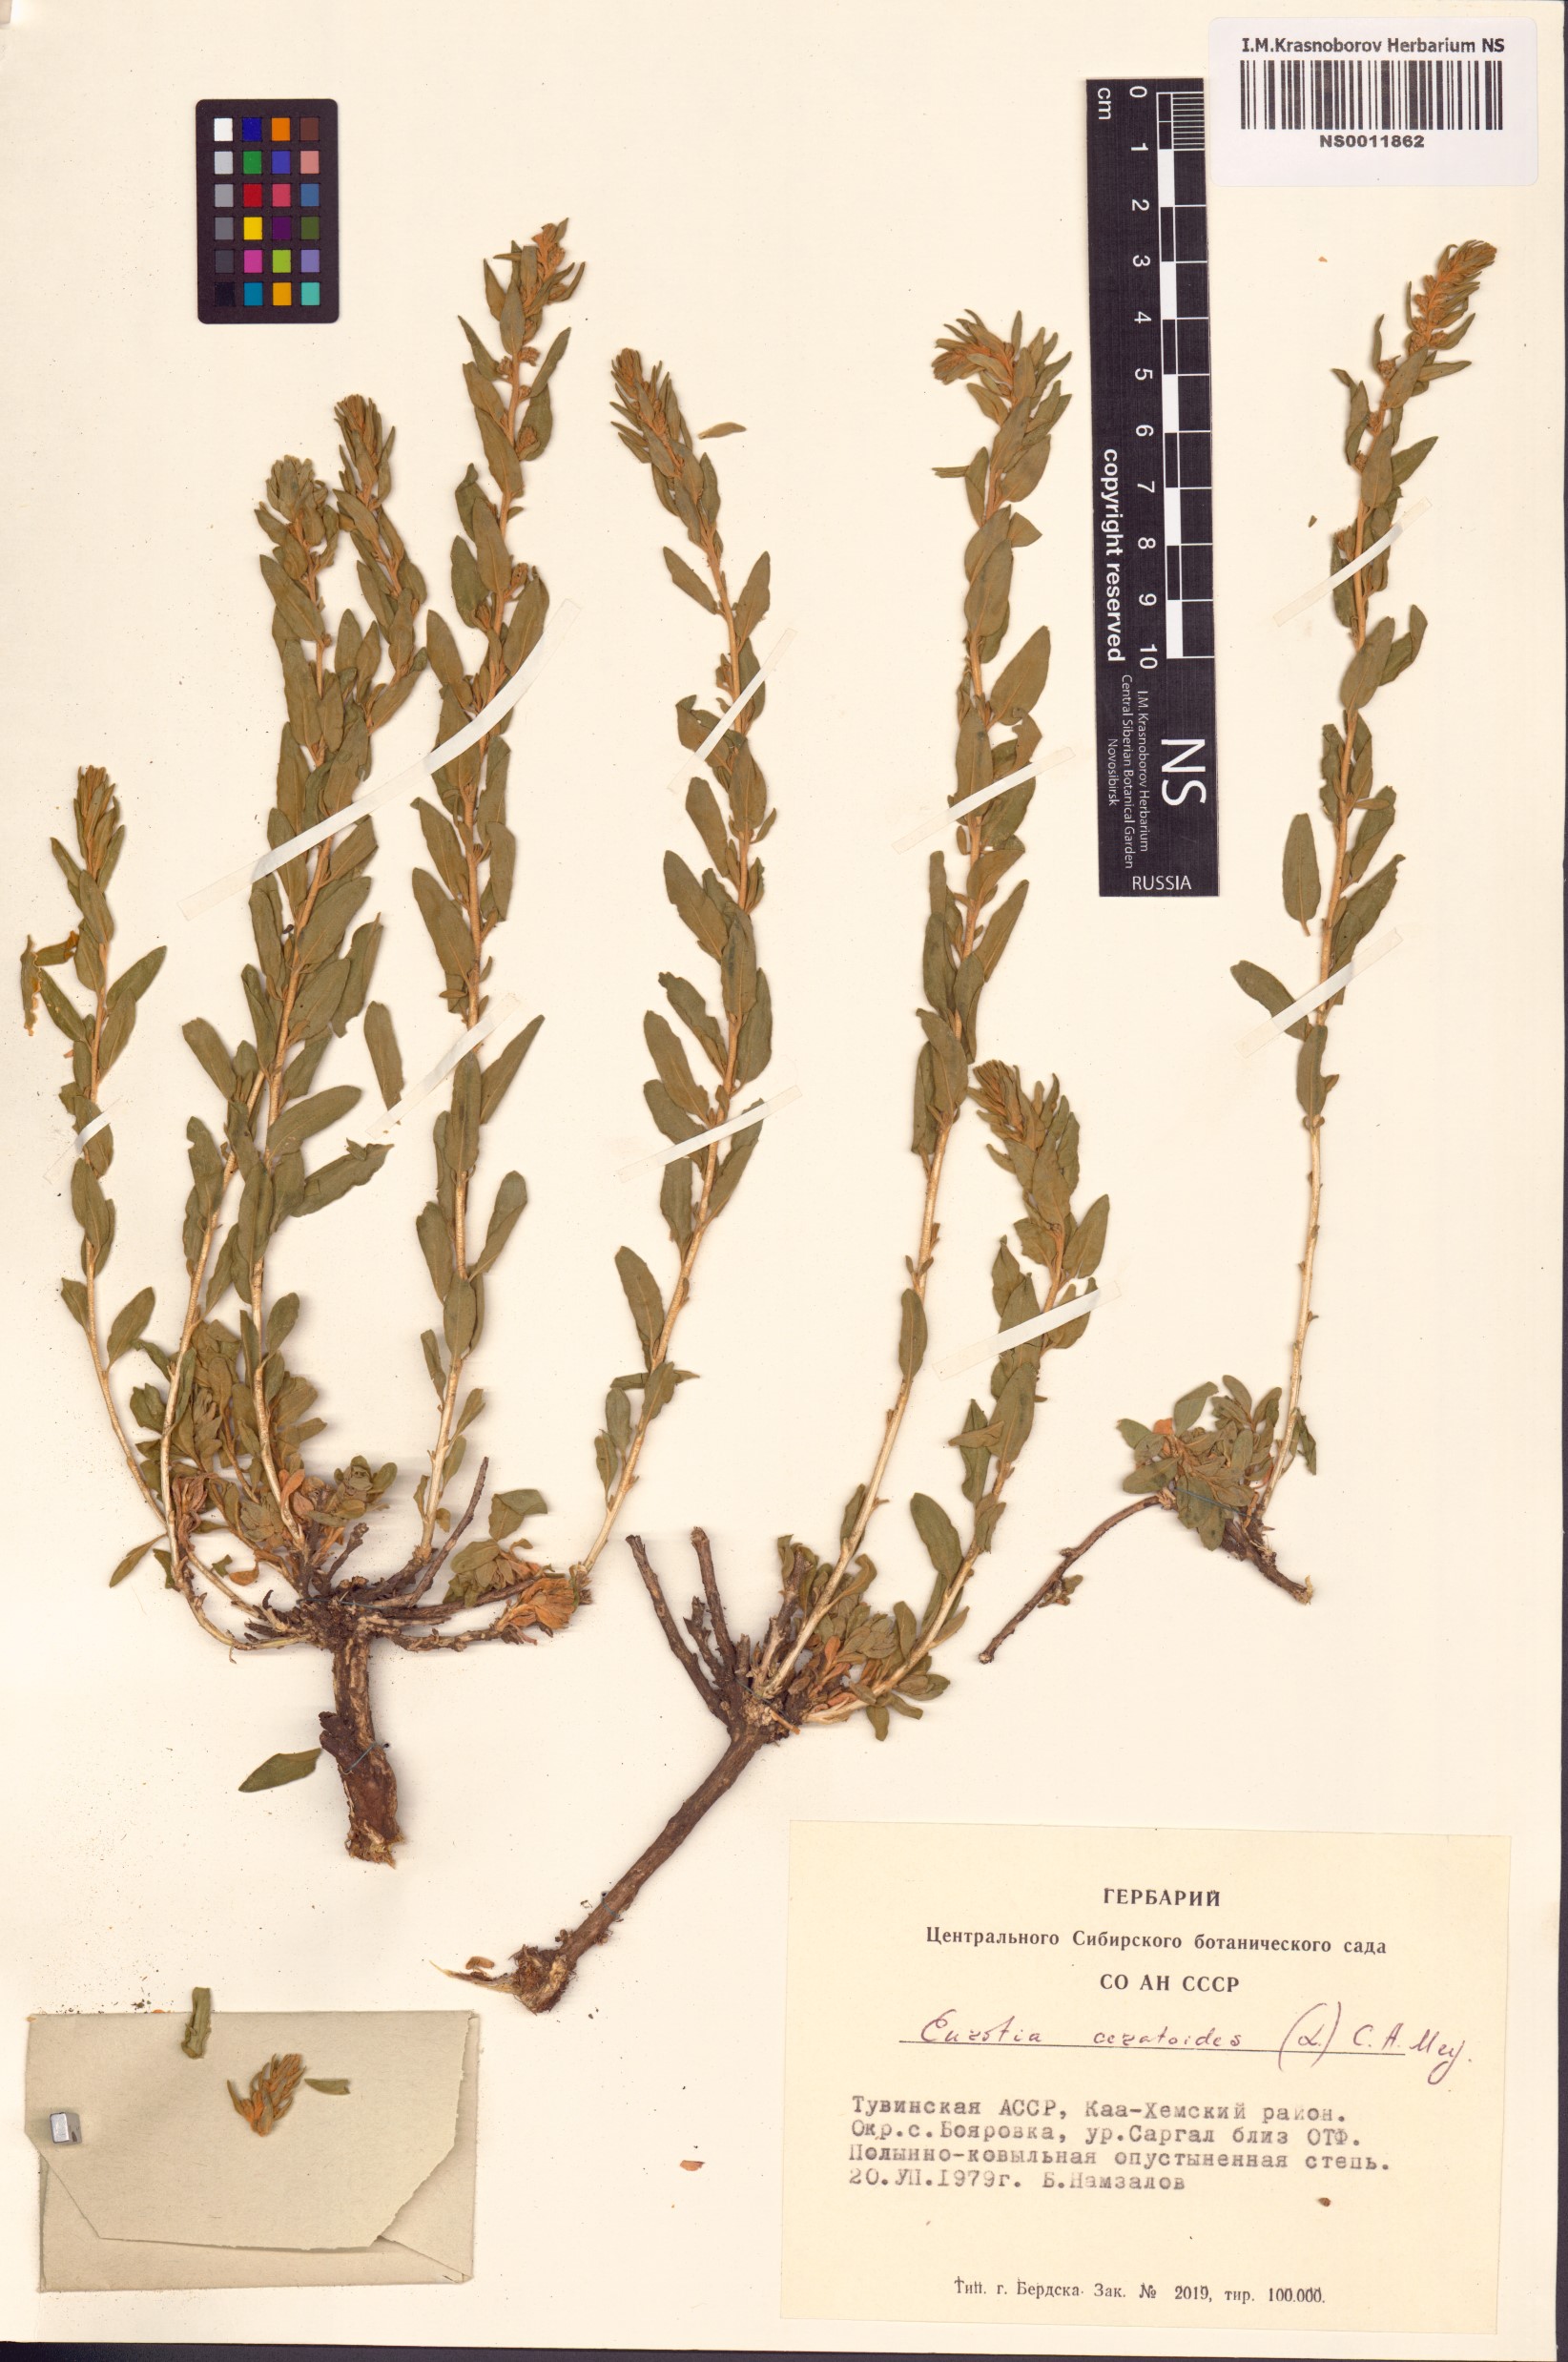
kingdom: Plantae
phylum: Tracheophyta
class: Magnoliopsida
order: Caryophyllales
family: Amaranthaceae
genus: Krascheninnikovia
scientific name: Krascheninnikovia ceratoides
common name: Pamirian winterfat
